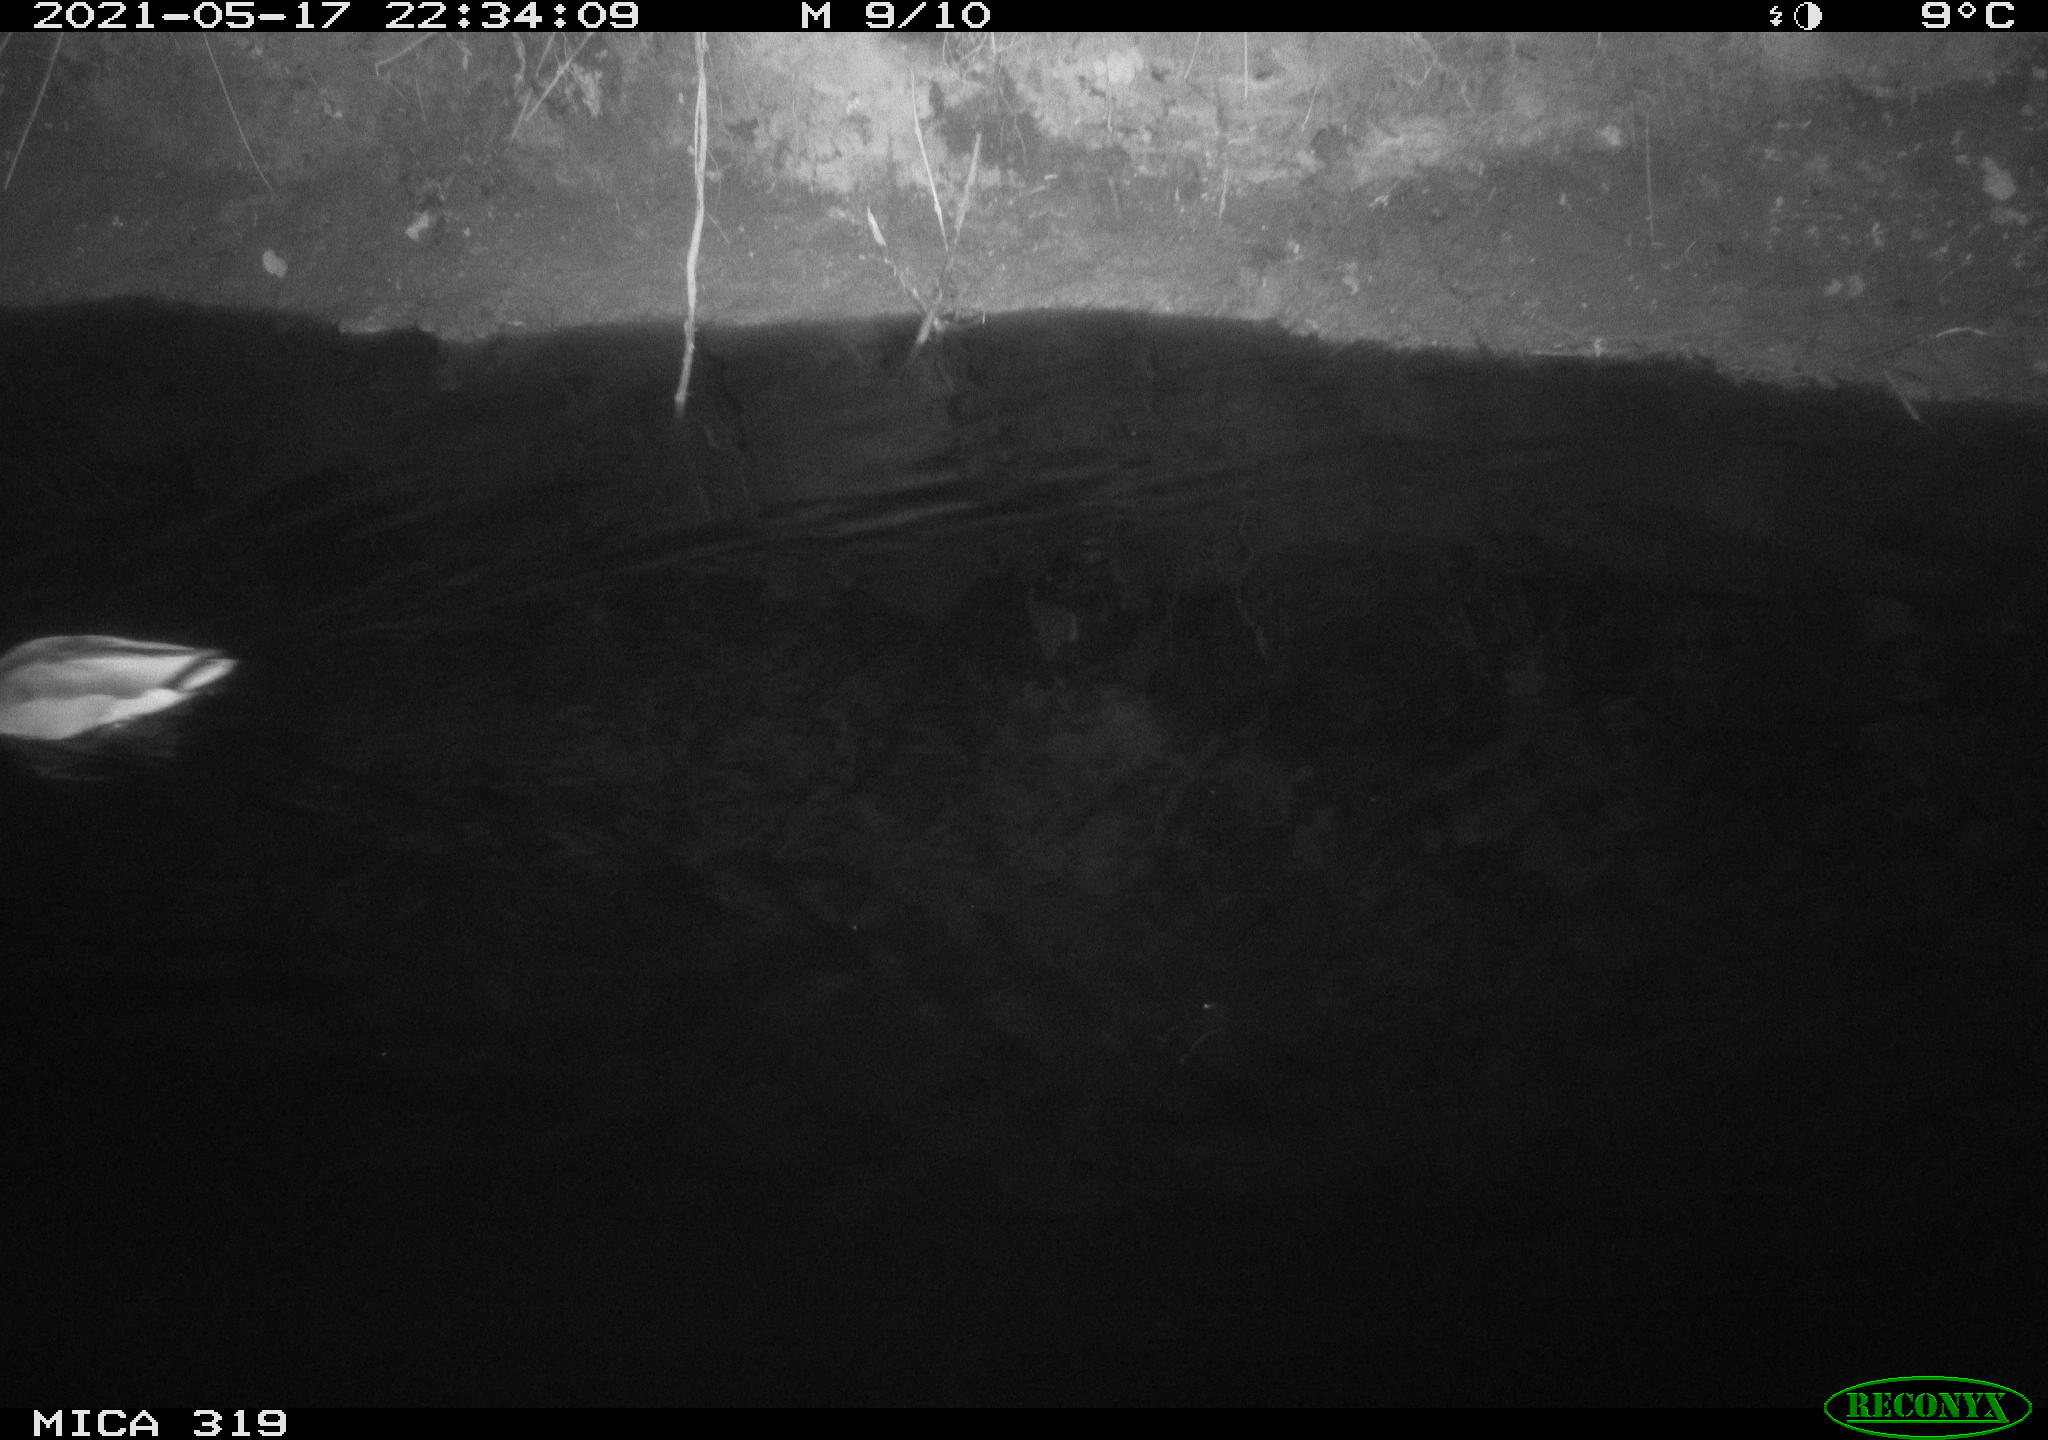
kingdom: Animalia
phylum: Chordata
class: Aves
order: Anseriformes
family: Anatidae
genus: Anas
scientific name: Anas platyrhynchos
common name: Mallard
